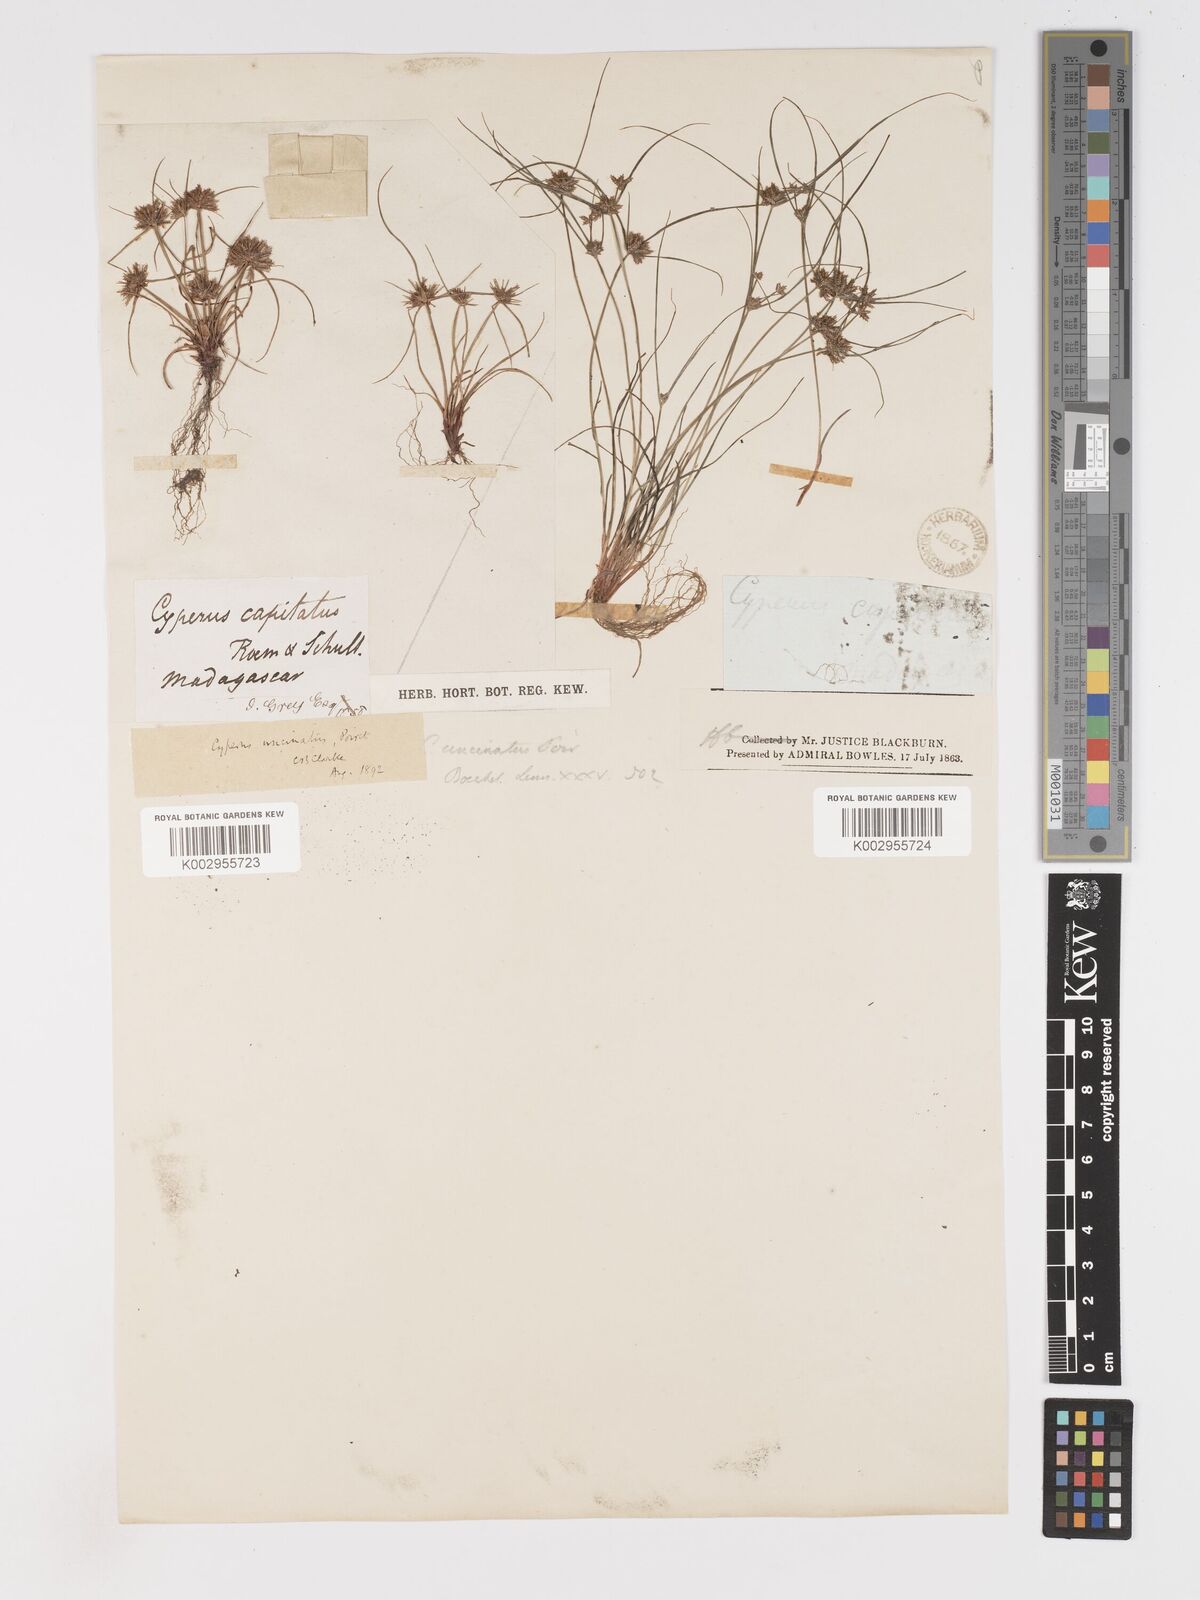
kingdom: Plantae
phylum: Tracheophyta
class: Liliopsida
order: Poales
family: Cyperaceae
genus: Cyperus
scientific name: Cyperus cuspidatus
